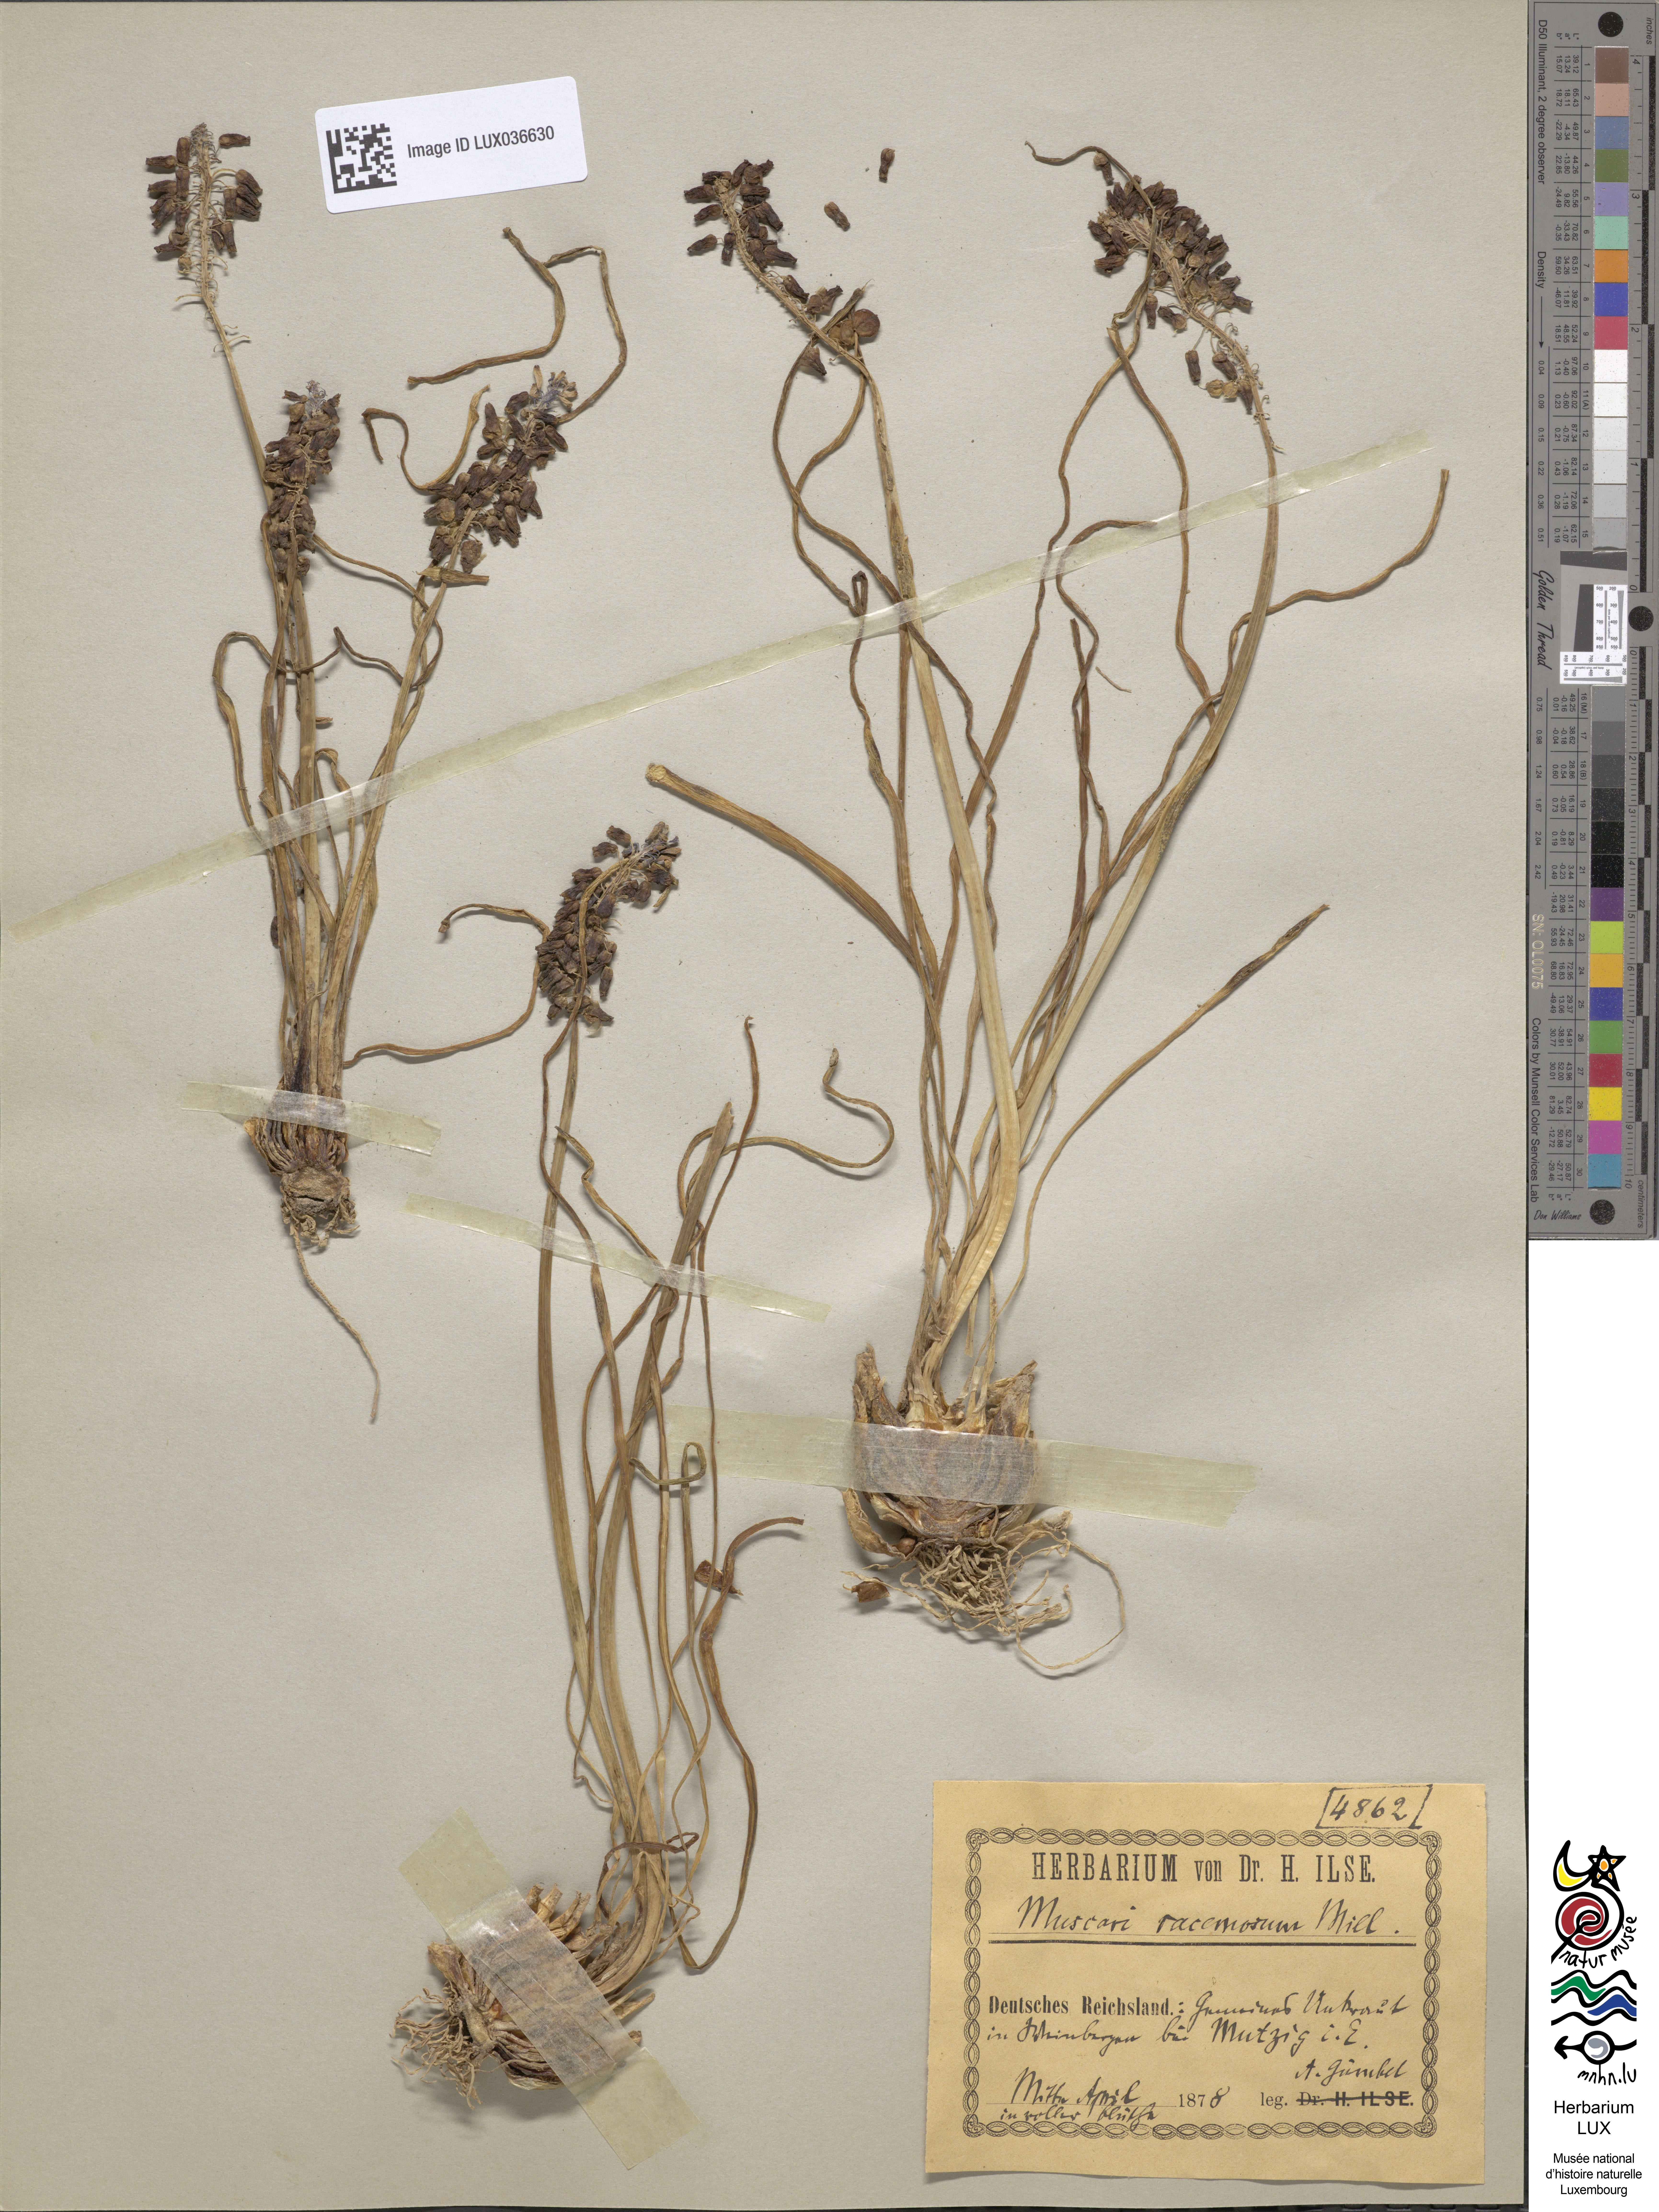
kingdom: Plantae
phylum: Tracheophyta
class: Liliopsida
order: Asparagales
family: Asparagaceae
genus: Muscari
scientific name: Muscari neglectum
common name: Grape-hyacinth
